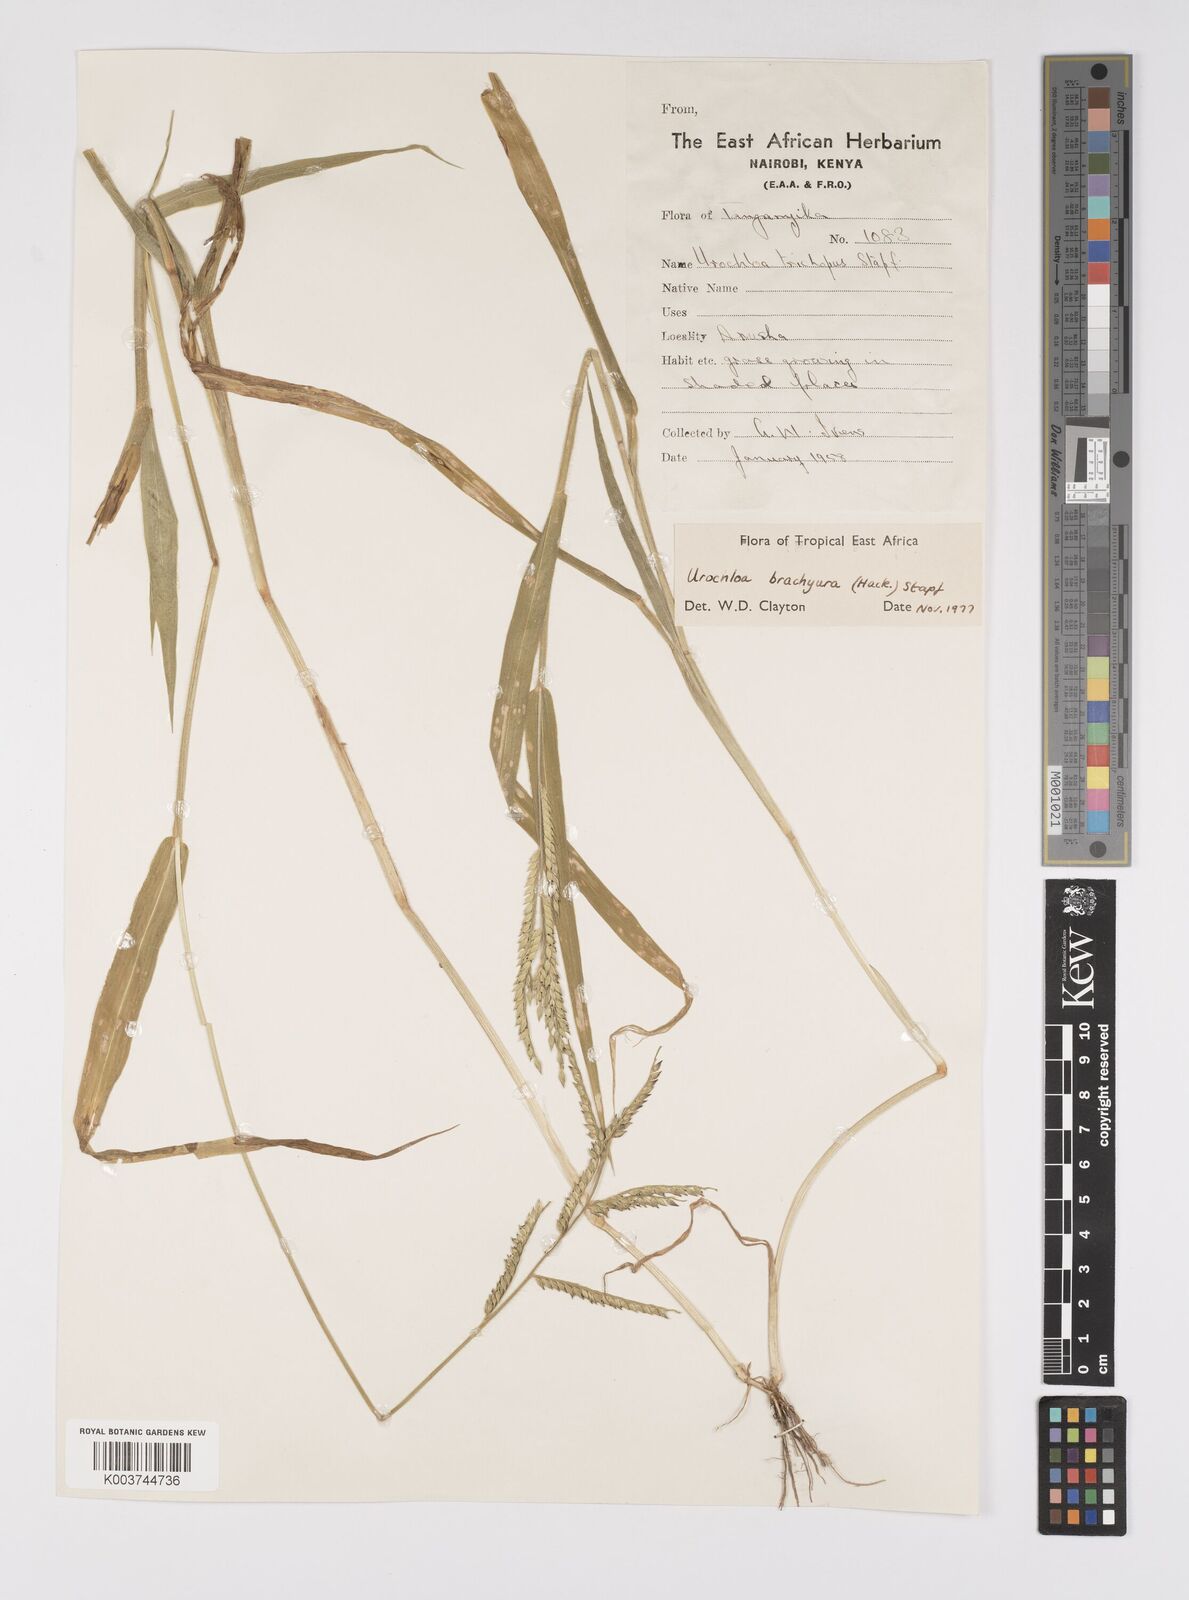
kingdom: Plantae
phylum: Tracheophyta
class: Liliopsida
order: Poales
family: Poaceae
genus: Urochloa
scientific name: Urochloa brachyura
